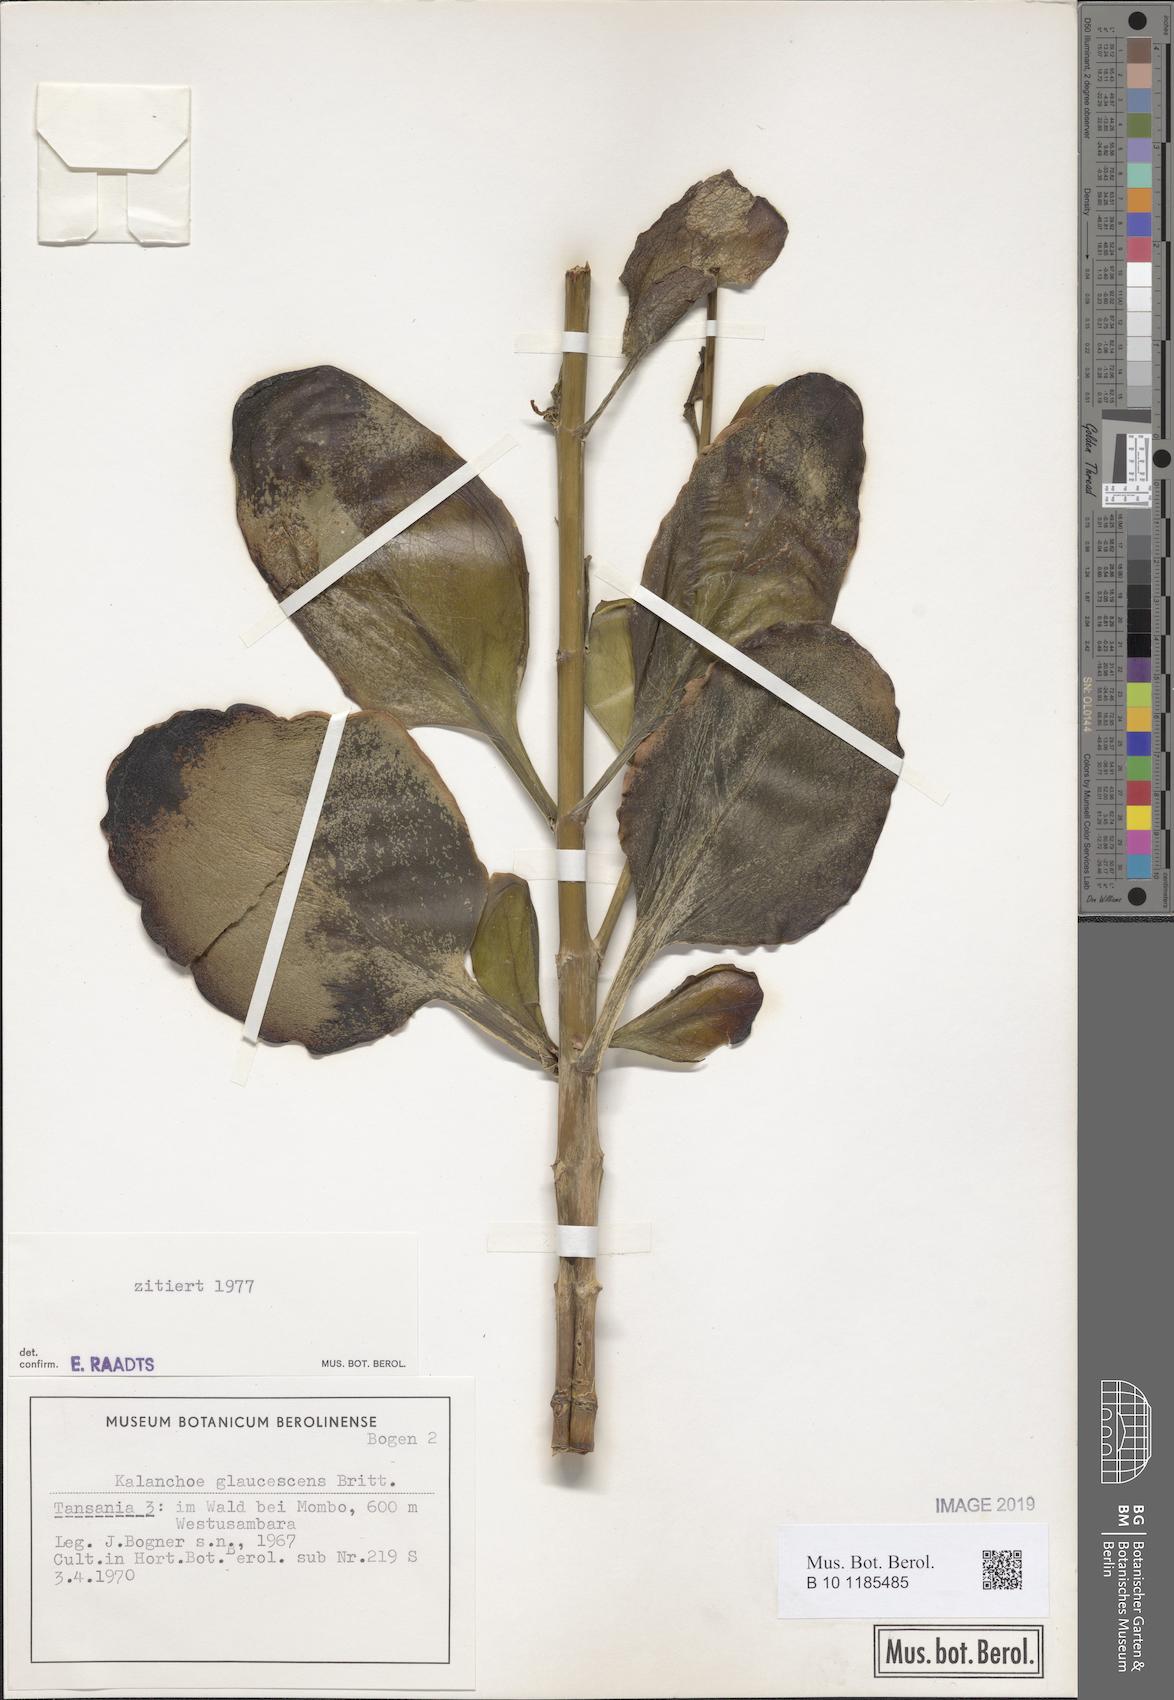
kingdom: Plantae
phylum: Tracheophyta
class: Magnoliopsida
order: Saxifragales
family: Crassulaceae
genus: Kalanchoe
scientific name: Kalanchoe glaucescens
